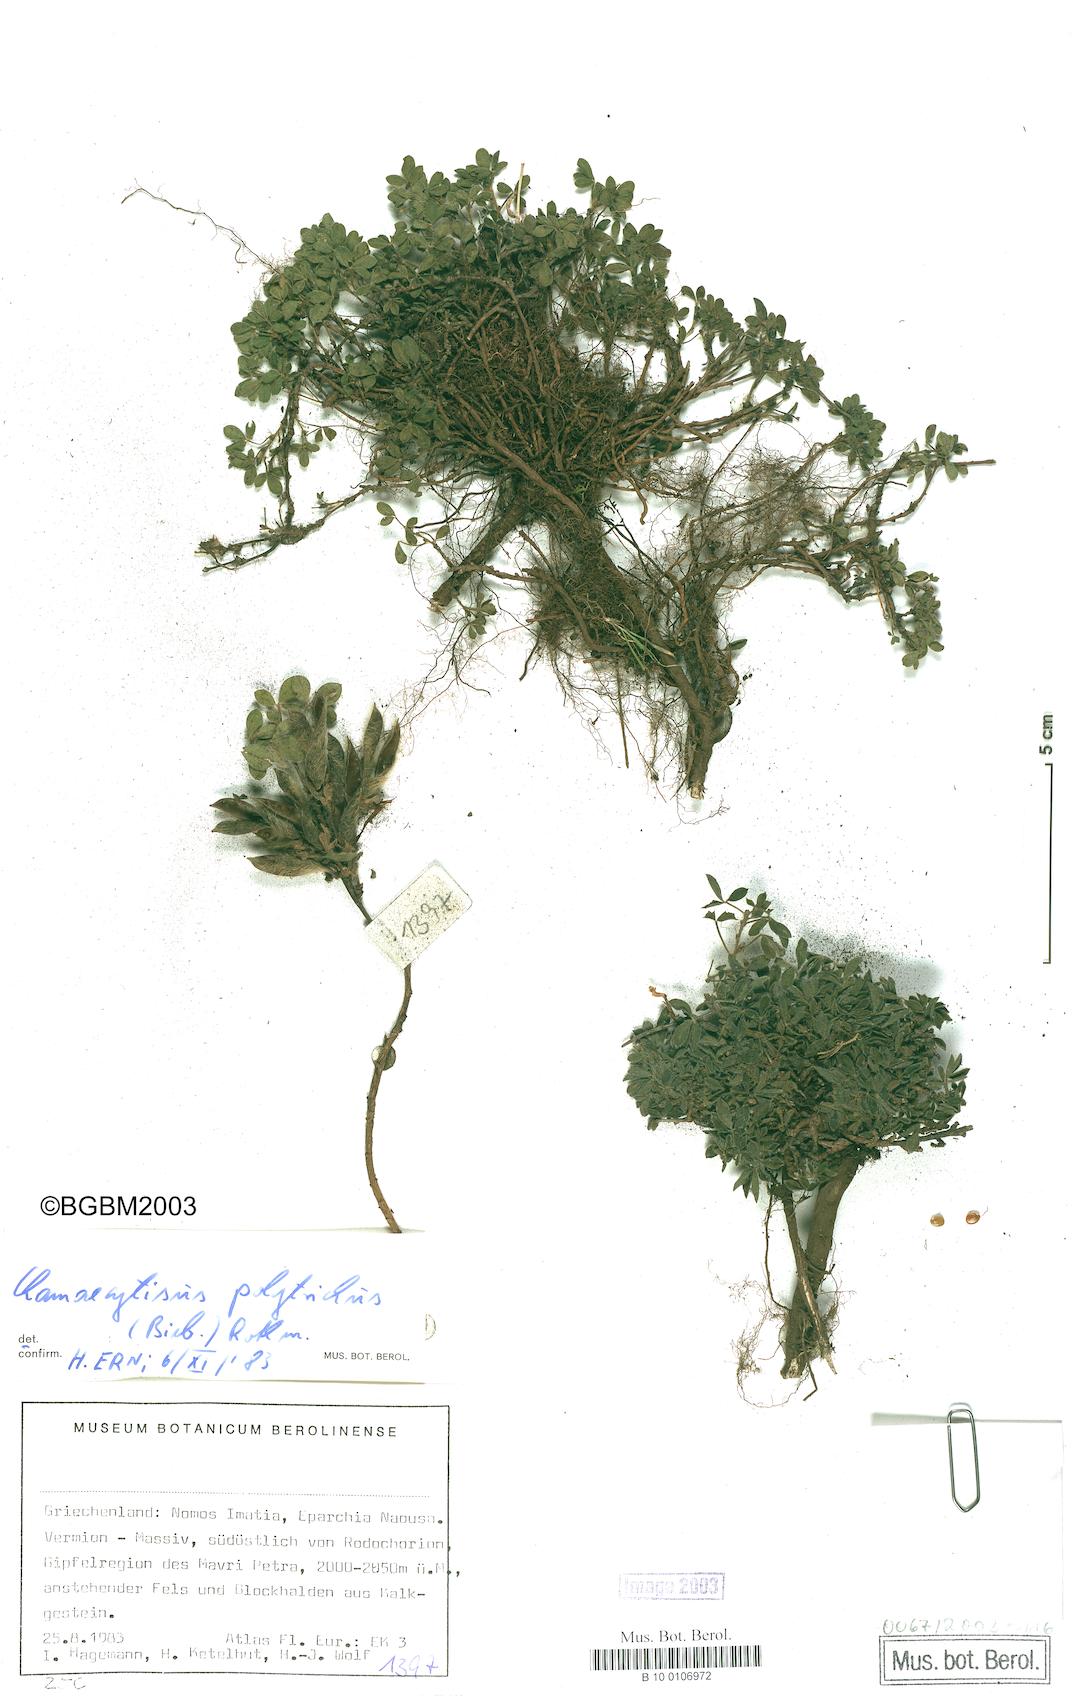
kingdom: Plantae
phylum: Tracheophyta
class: Magnoliopsida
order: Fabales
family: Fabaceae
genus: Chamaecytisus
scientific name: Chamaecytisus hirsutus
